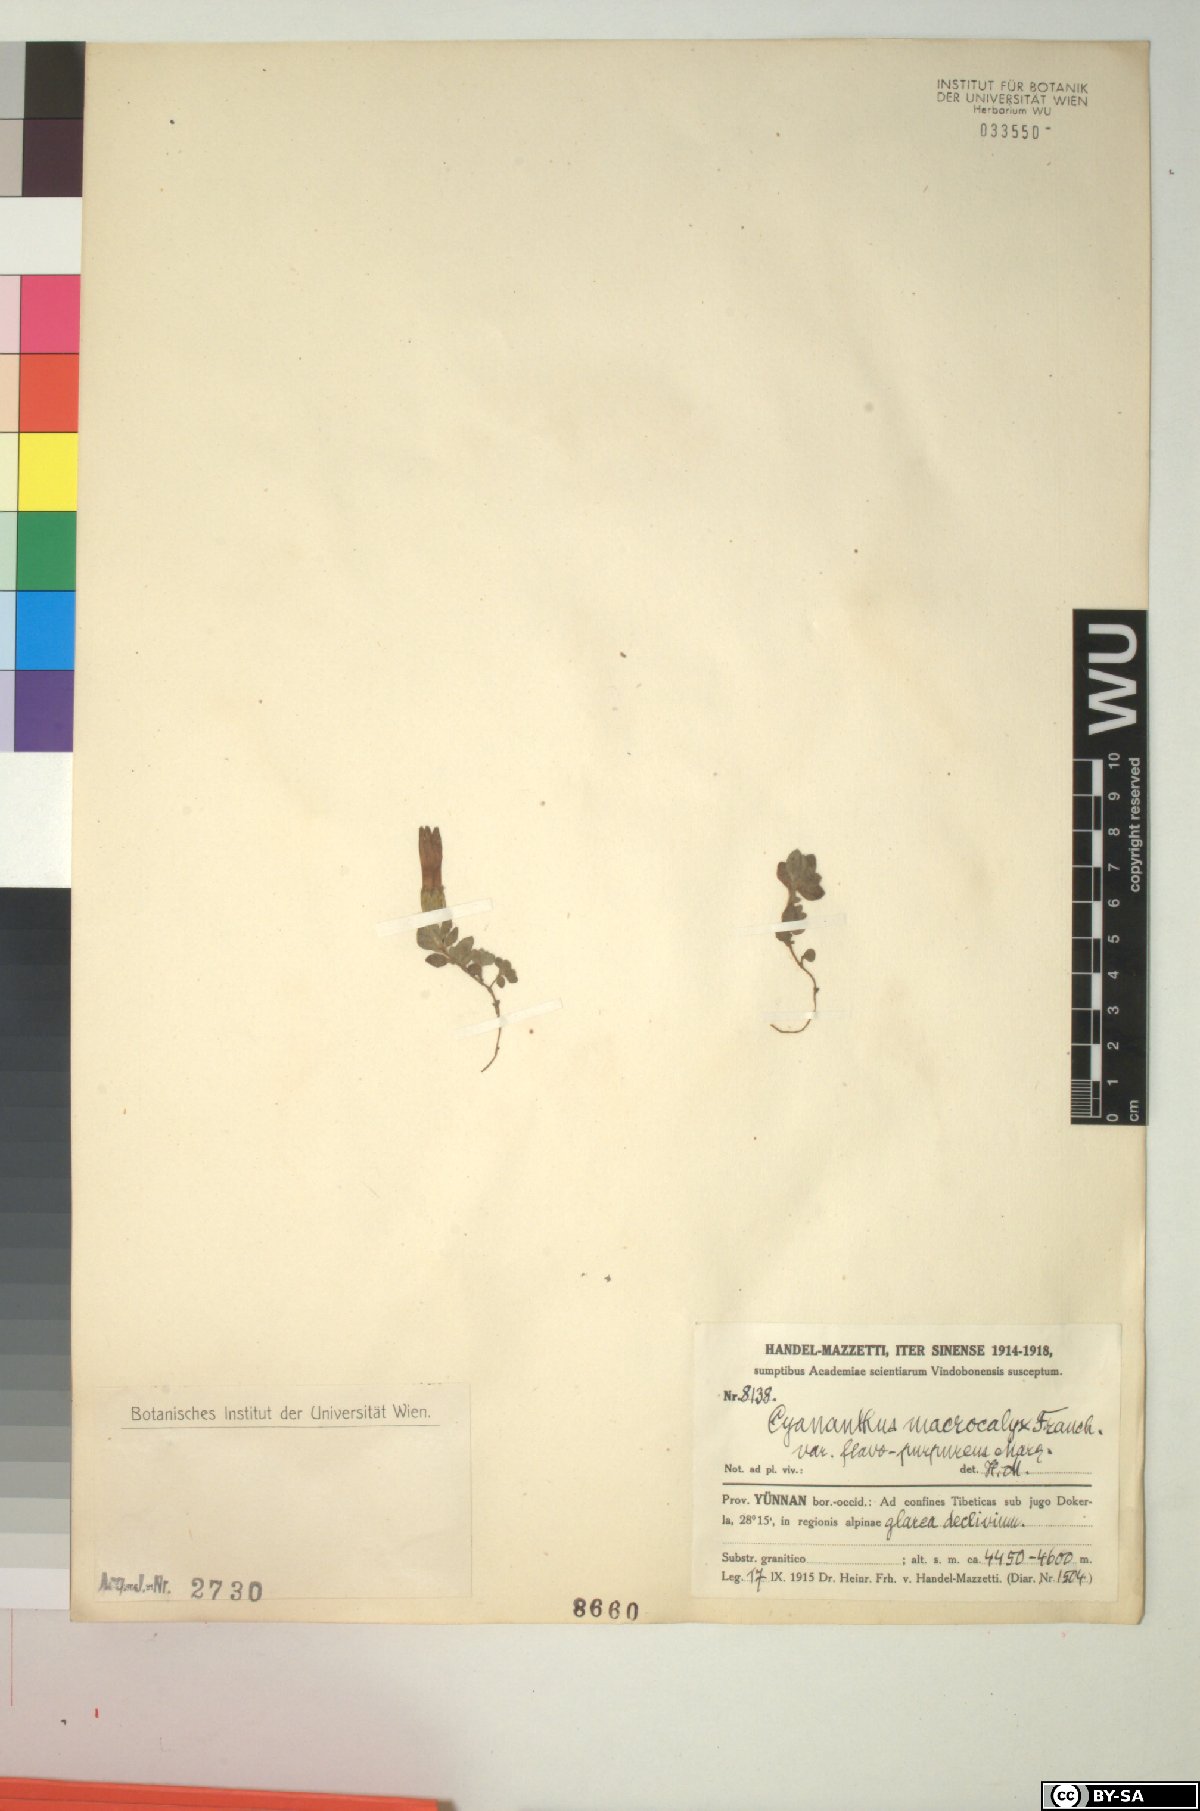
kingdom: Plantae
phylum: Tracheophyta
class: Magnoliopsida
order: Asterales
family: Campanulaceae
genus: Cyananthus
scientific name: Cyananthus macrocalyx
